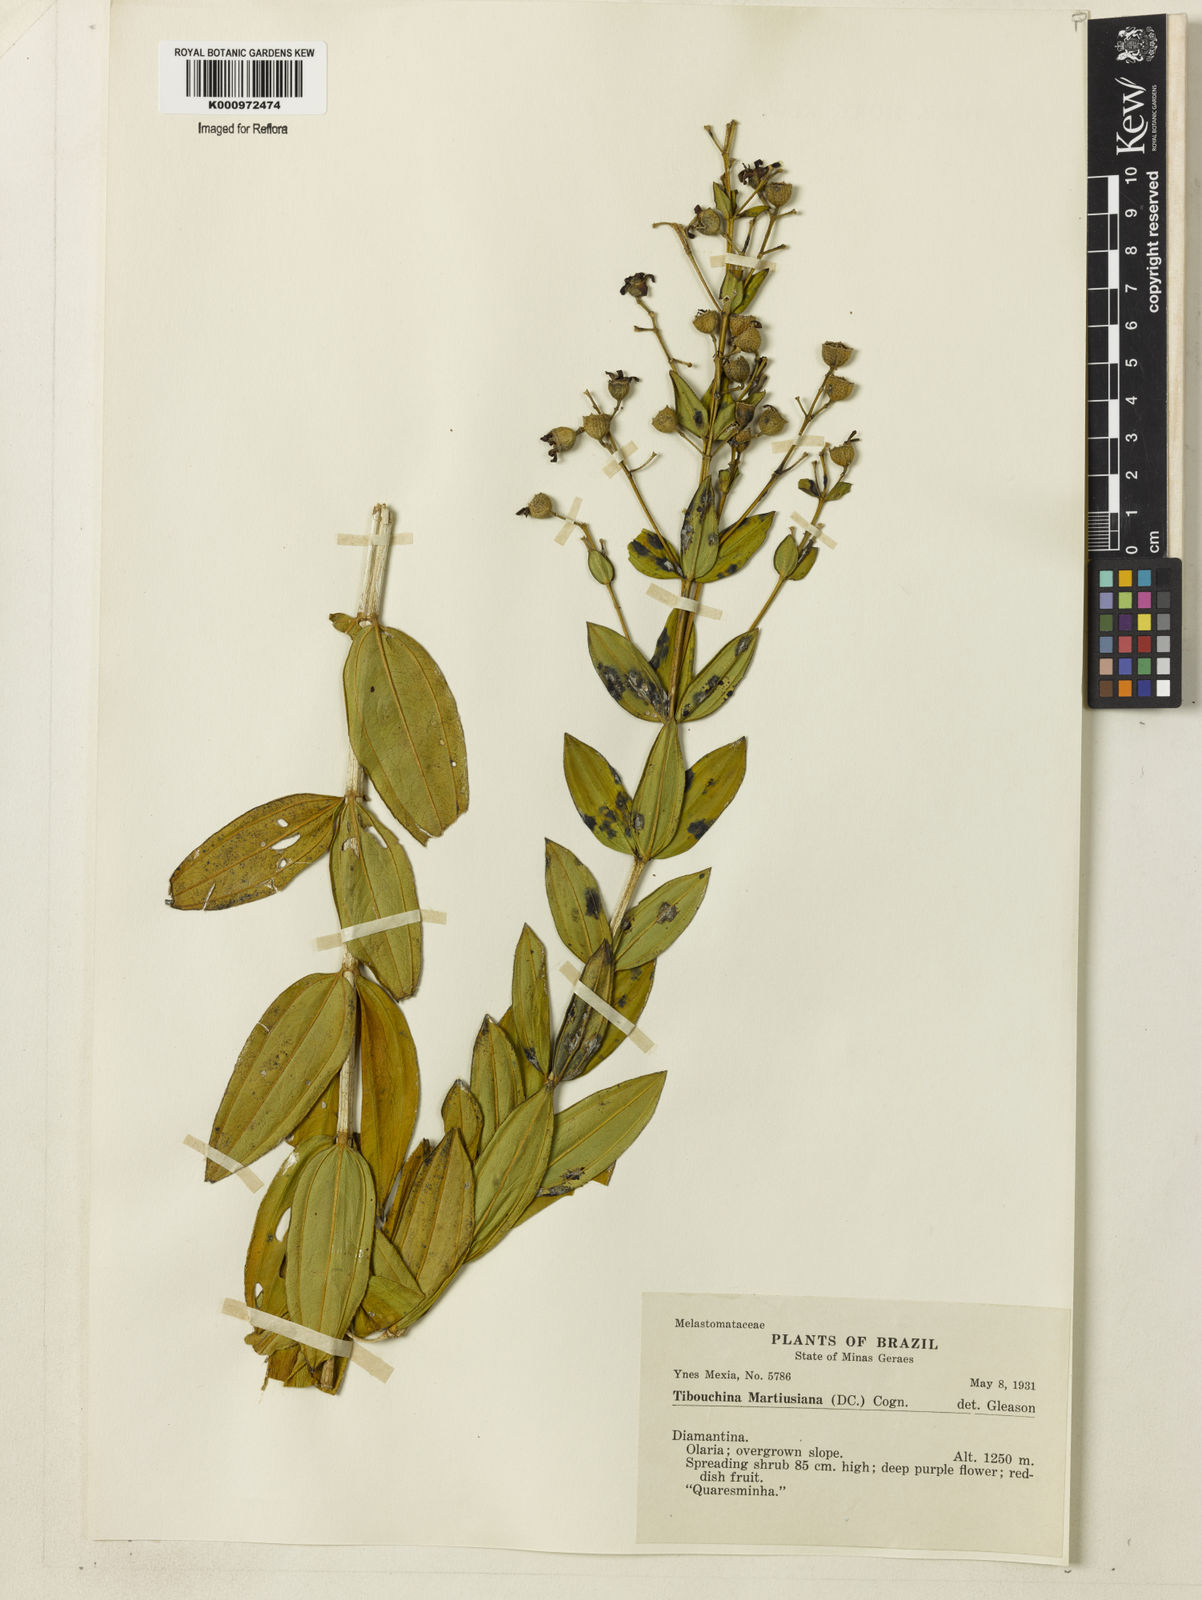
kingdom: Plantae
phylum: Tracheophyta
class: Magnoliopsida
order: Myrtales
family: Melastomataceae
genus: Pleroma
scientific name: Pleroma martiusianum
